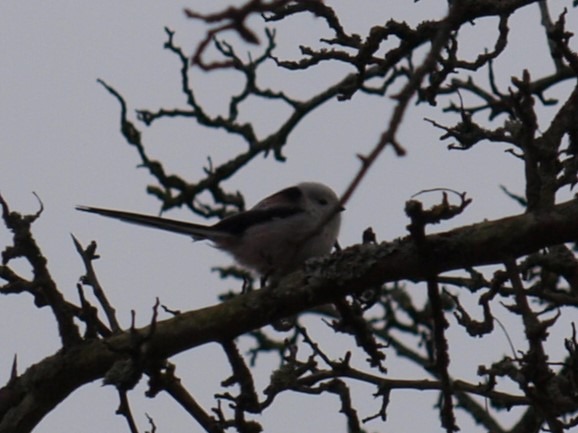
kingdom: Animalia
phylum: Chordata
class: Aves
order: Passeriformes
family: Aegithalidae
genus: Aegithalos
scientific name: Aegithalos caudatus
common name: Halemejse
